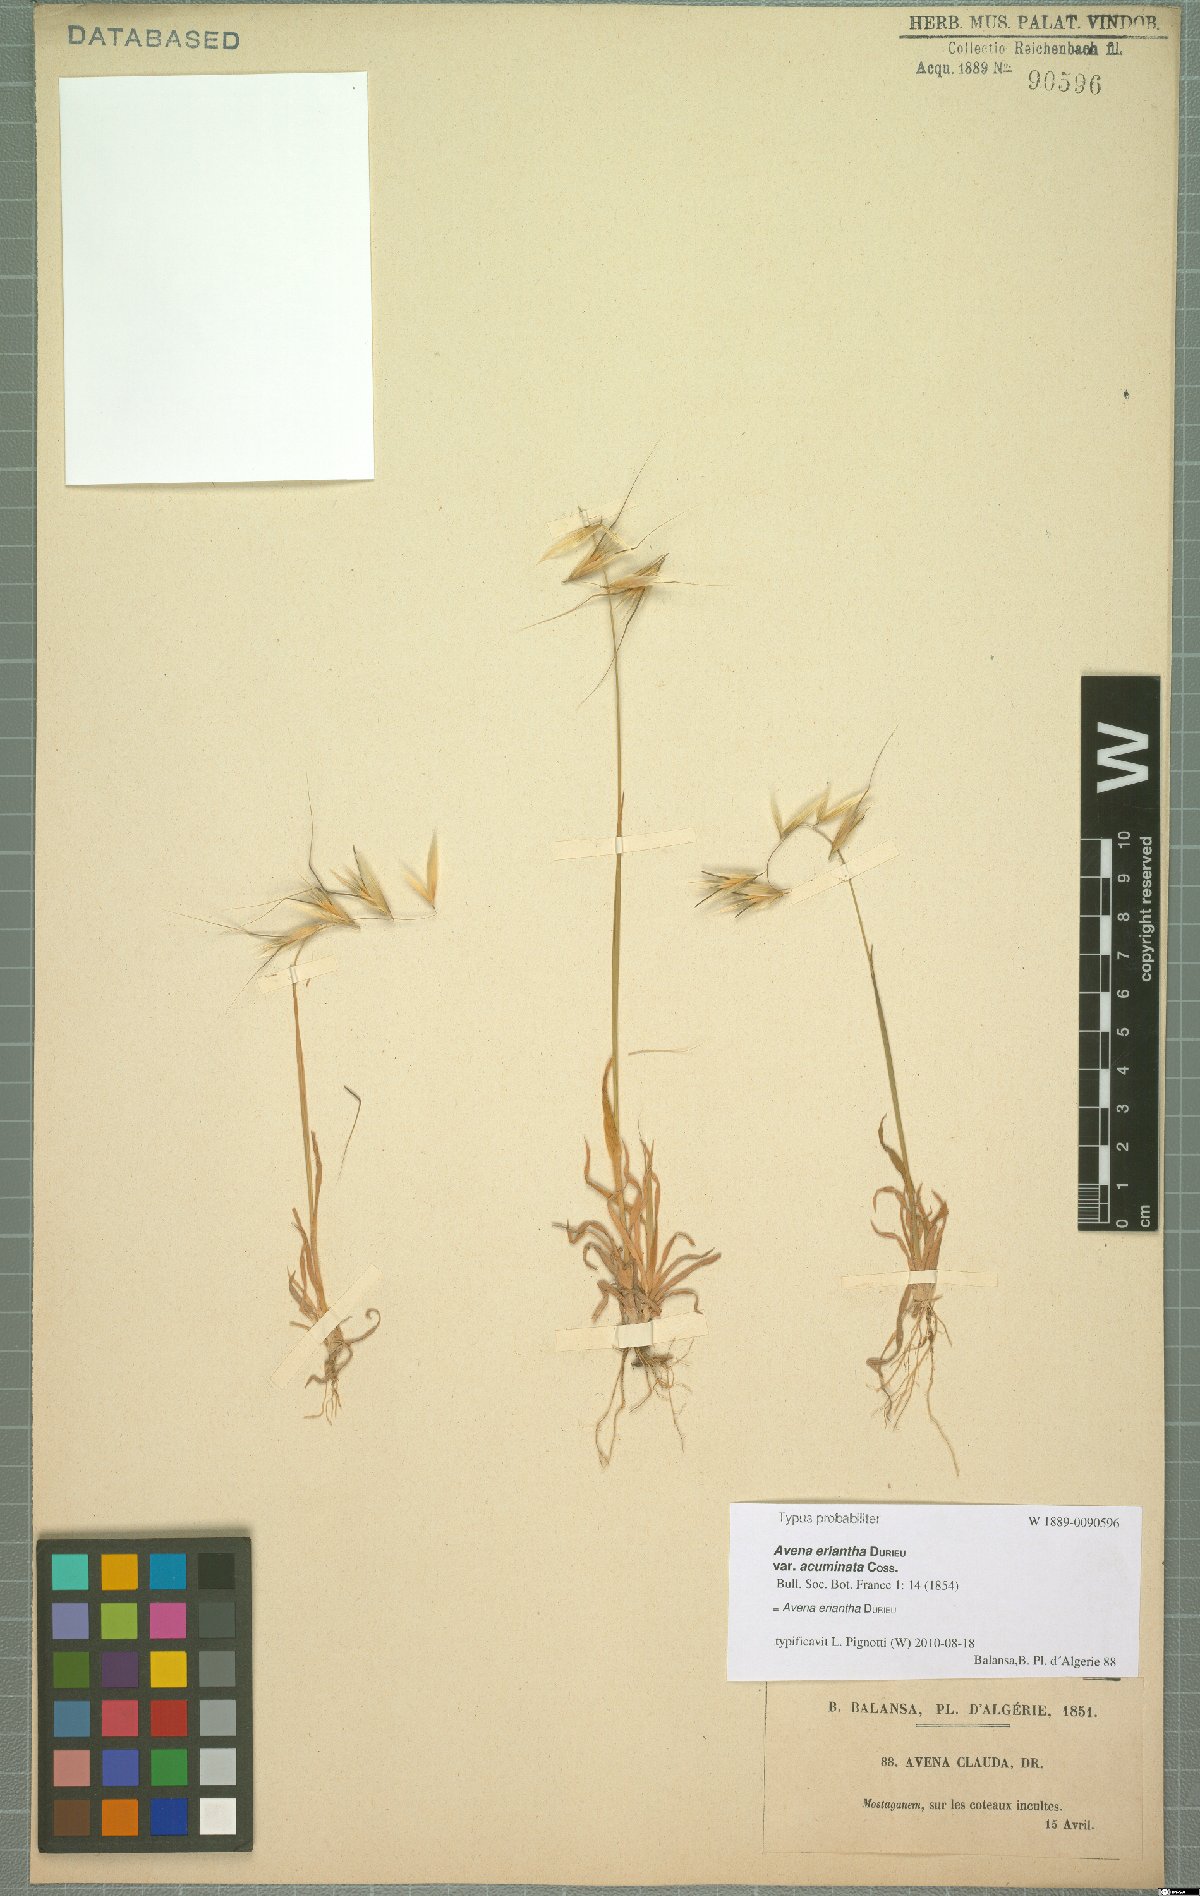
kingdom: Plantae
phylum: Tracheophyta
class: Liliopsida
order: Poales
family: Poaceae
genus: Avena
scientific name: Avena eriantha
